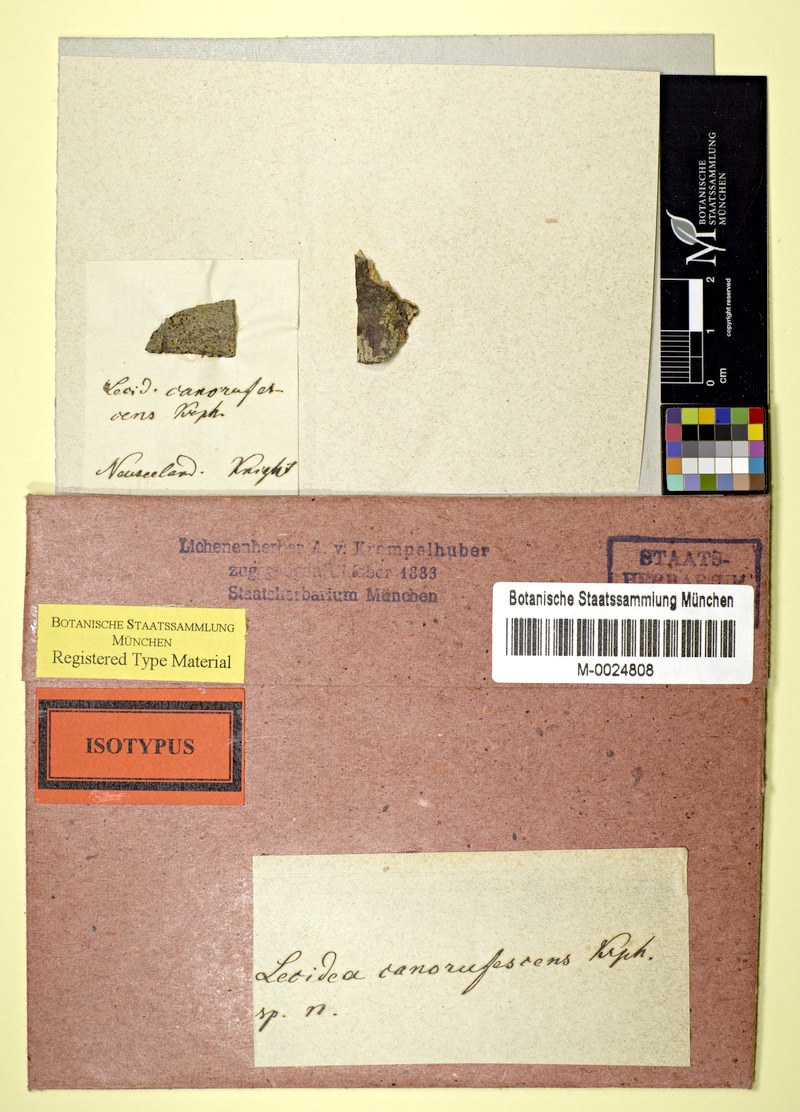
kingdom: Fungi
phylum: Ascomycota
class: Lecanoromycetes
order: Lecanorales
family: Malmideaceae
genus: Australidea
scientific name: Australidea canorufescens
